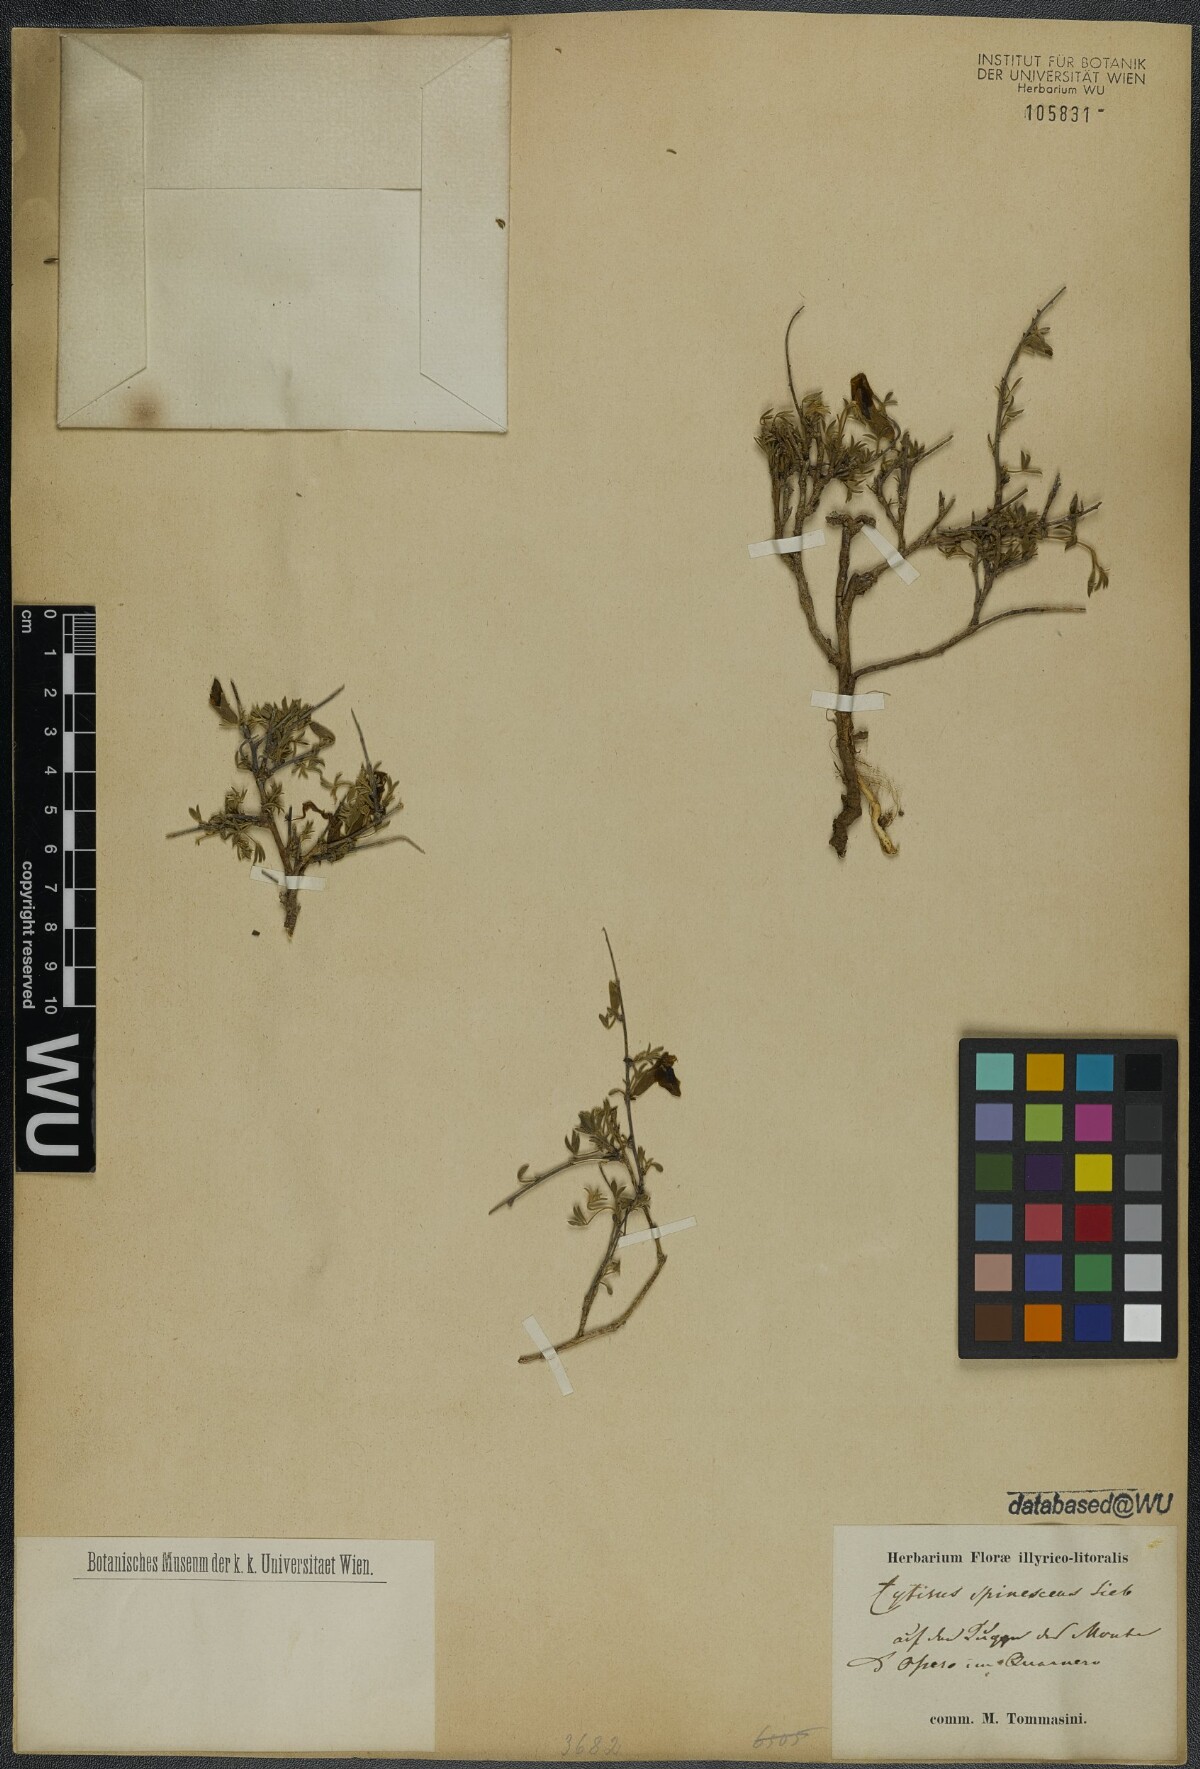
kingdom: Plantae
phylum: Tracheophyta
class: Magnoliopsida
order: Fabales
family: Fabaceae
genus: Chamaecytisus
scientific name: Chamaecytisus spinescens
